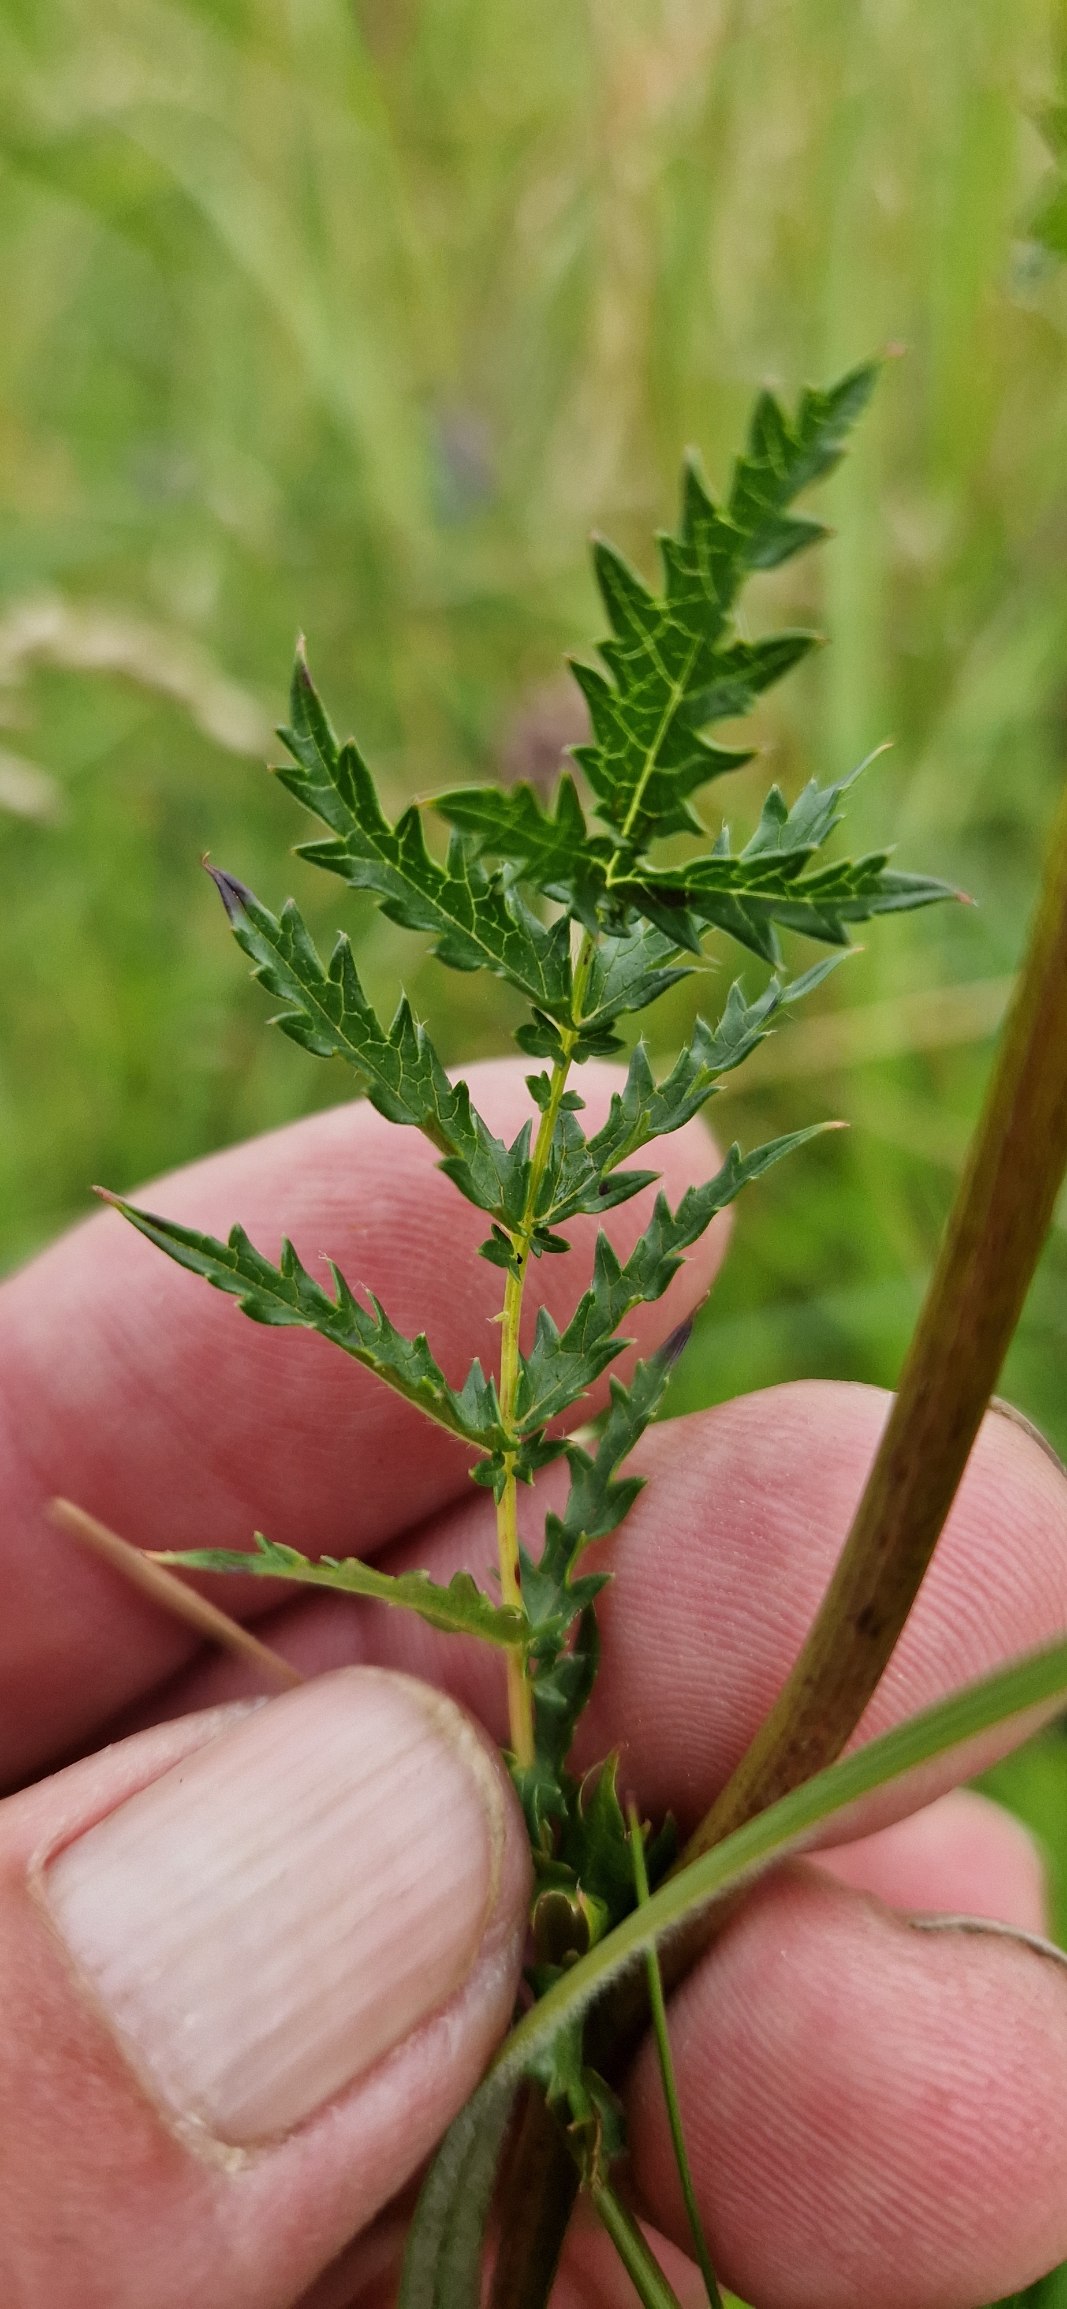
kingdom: Plantae
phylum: Tracheophyta
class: Magnoliopsida
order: Rosales
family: Rosaceae
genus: Filipendula
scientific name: Filipendula vulgaris
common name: Knoldet mjødurt
